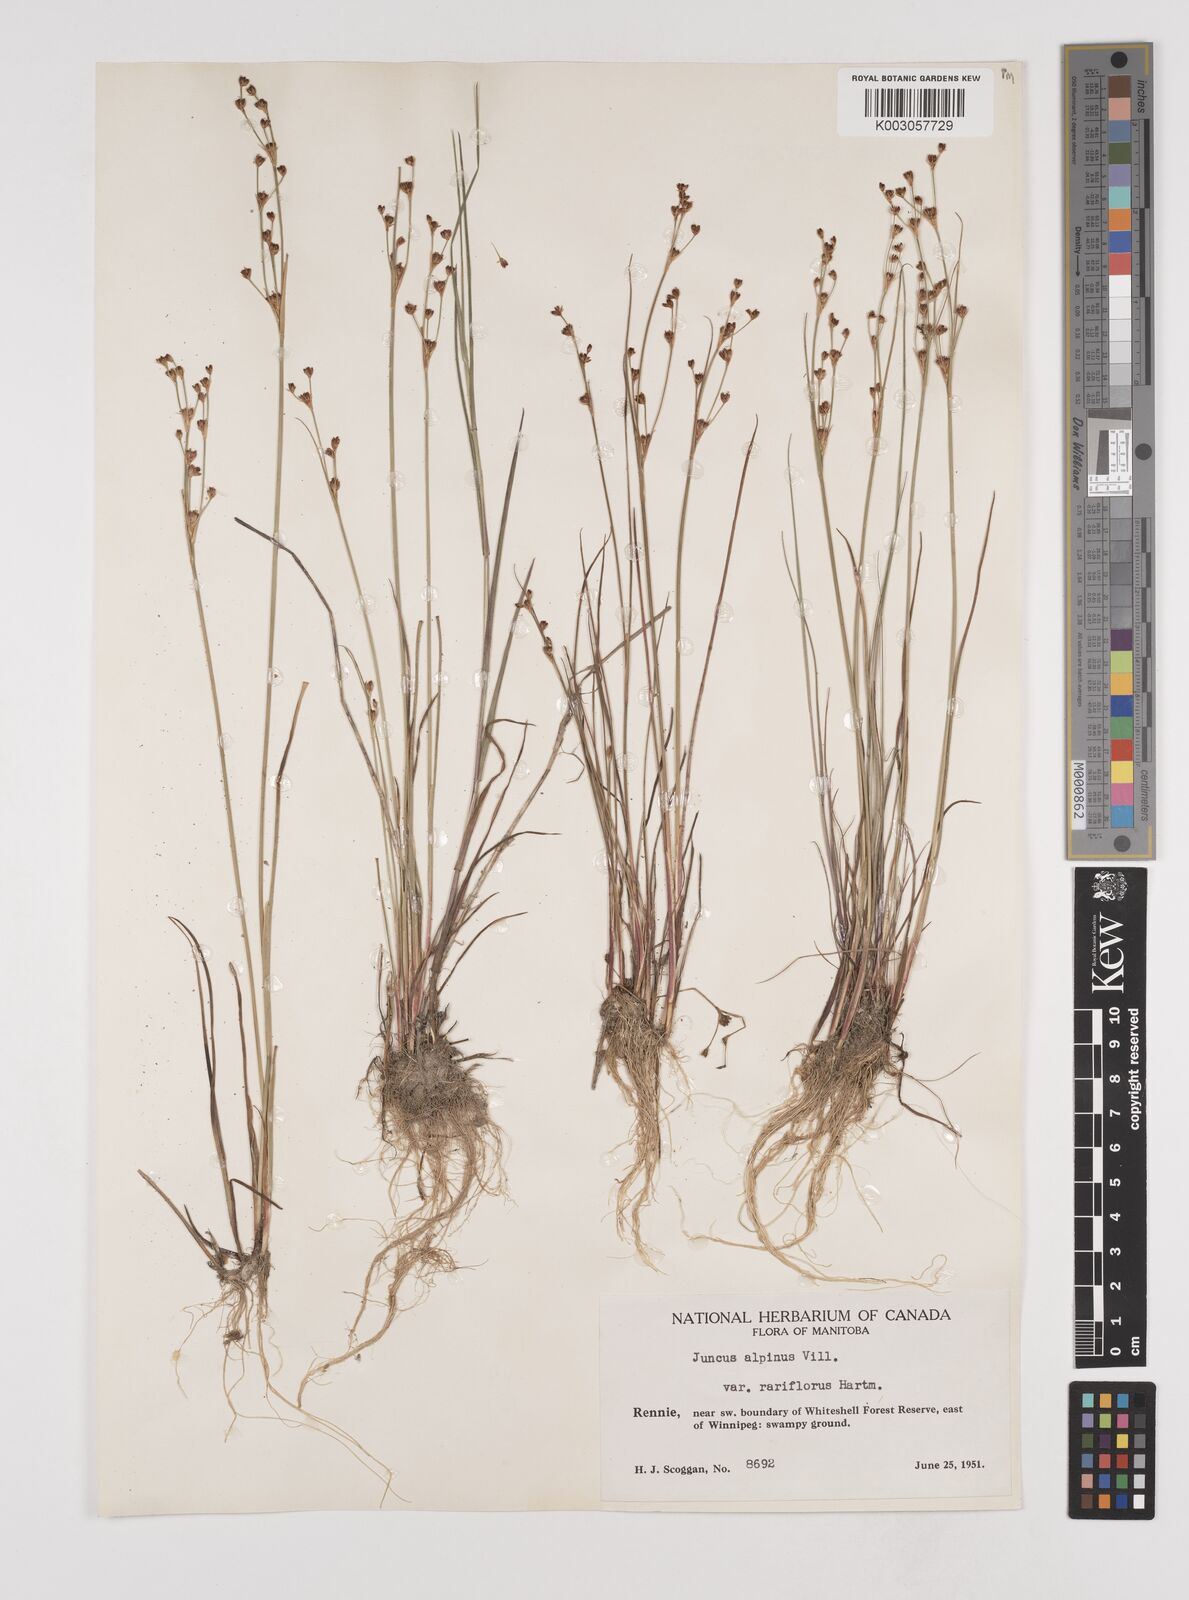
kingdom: Plantae
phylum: Tracheophyta
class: Liliopsida
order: Poales
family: Juncaceae
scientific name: Juncaceae
